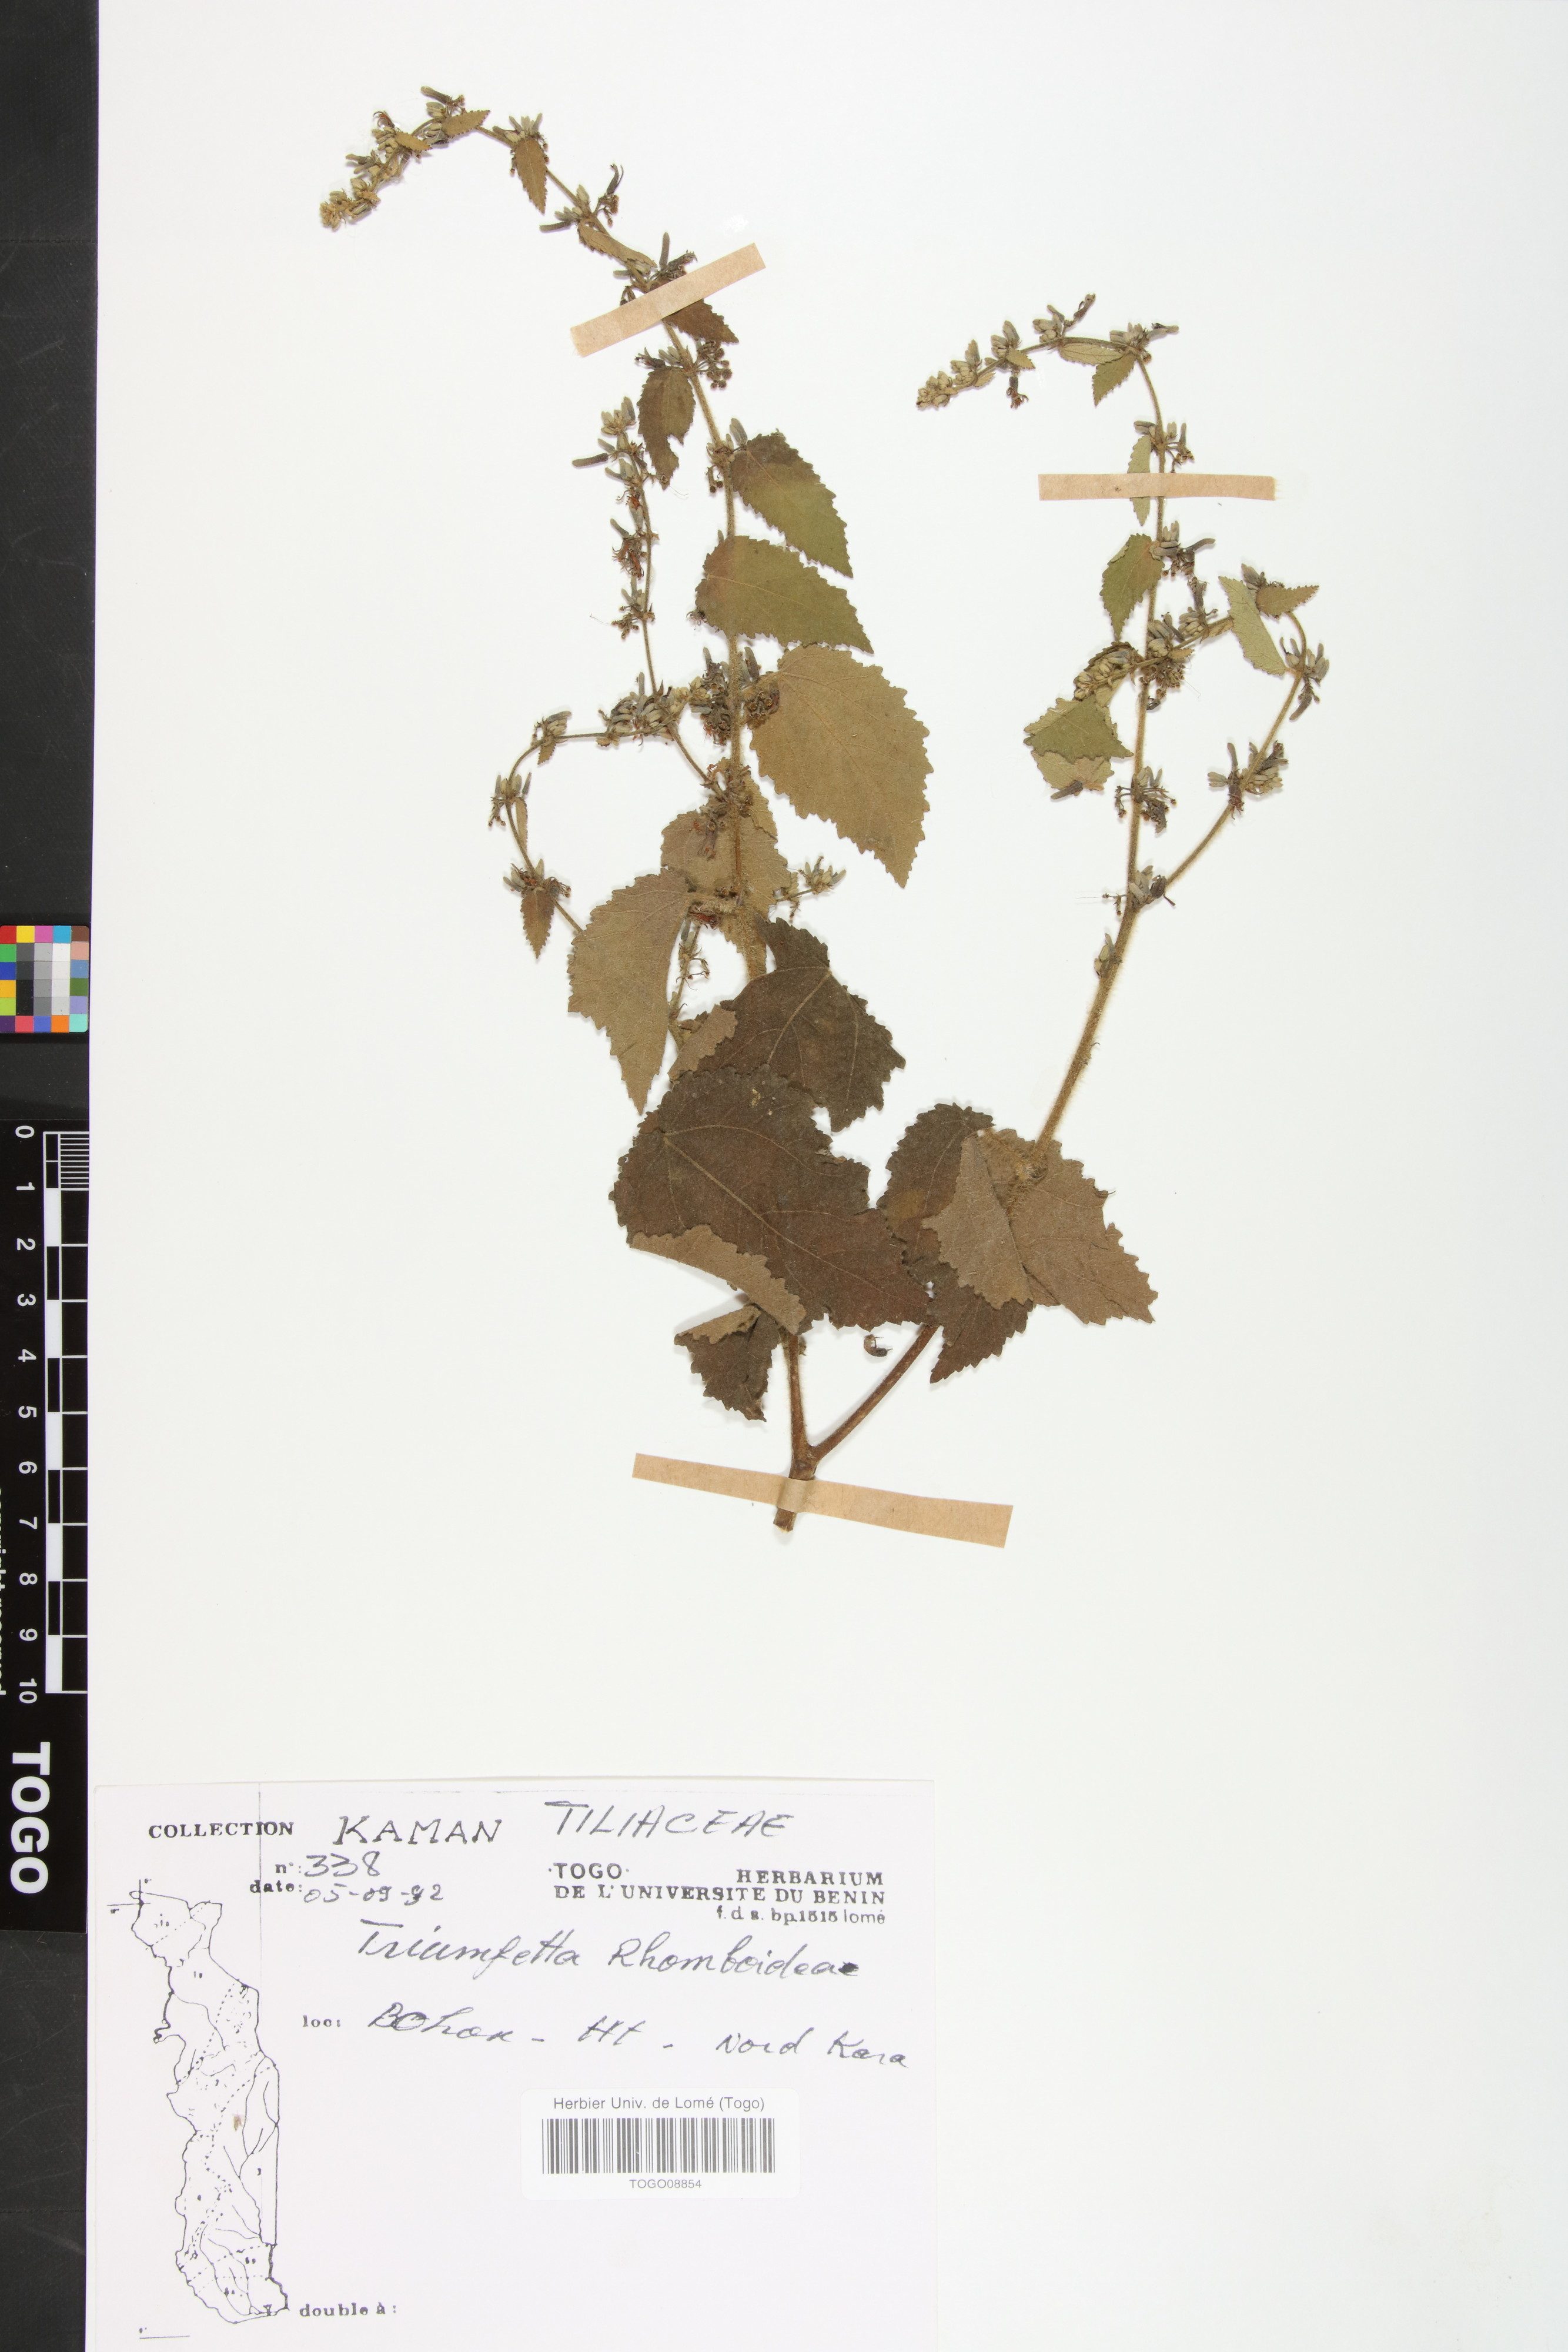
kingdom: Plantae
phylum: Tracheophyta
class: Magnoliopsida
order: Malvales
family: Malvaceae
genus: Triumfetta
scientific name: Triumfetta rhomboidea
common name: Diamond burbark
